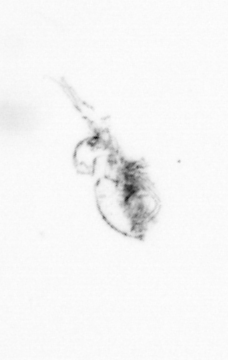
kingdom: Animalia
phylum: Arthropoda
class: Copepoda
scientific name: Copepoda
